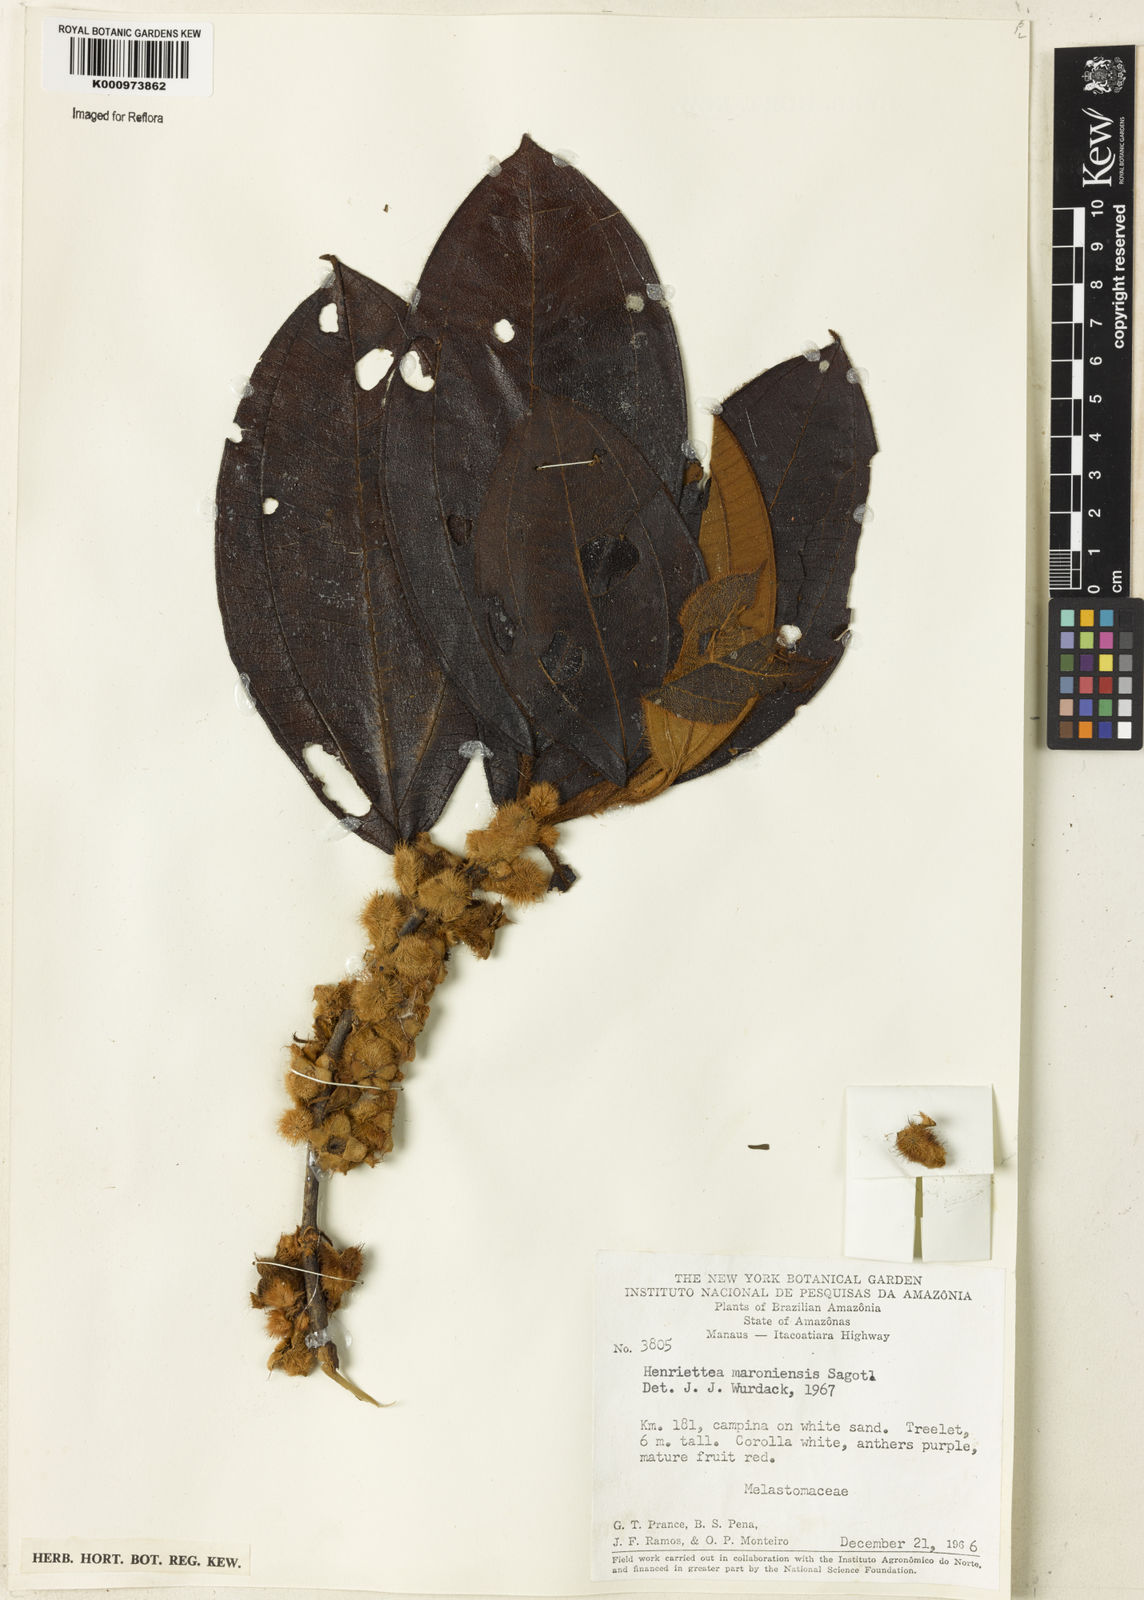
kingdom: Plantae
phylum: Tracheophyta
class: Magnoliopsida
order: Myrtales
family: Melastomataceae
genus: Henriettea
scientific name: Henriettea maroniensis
